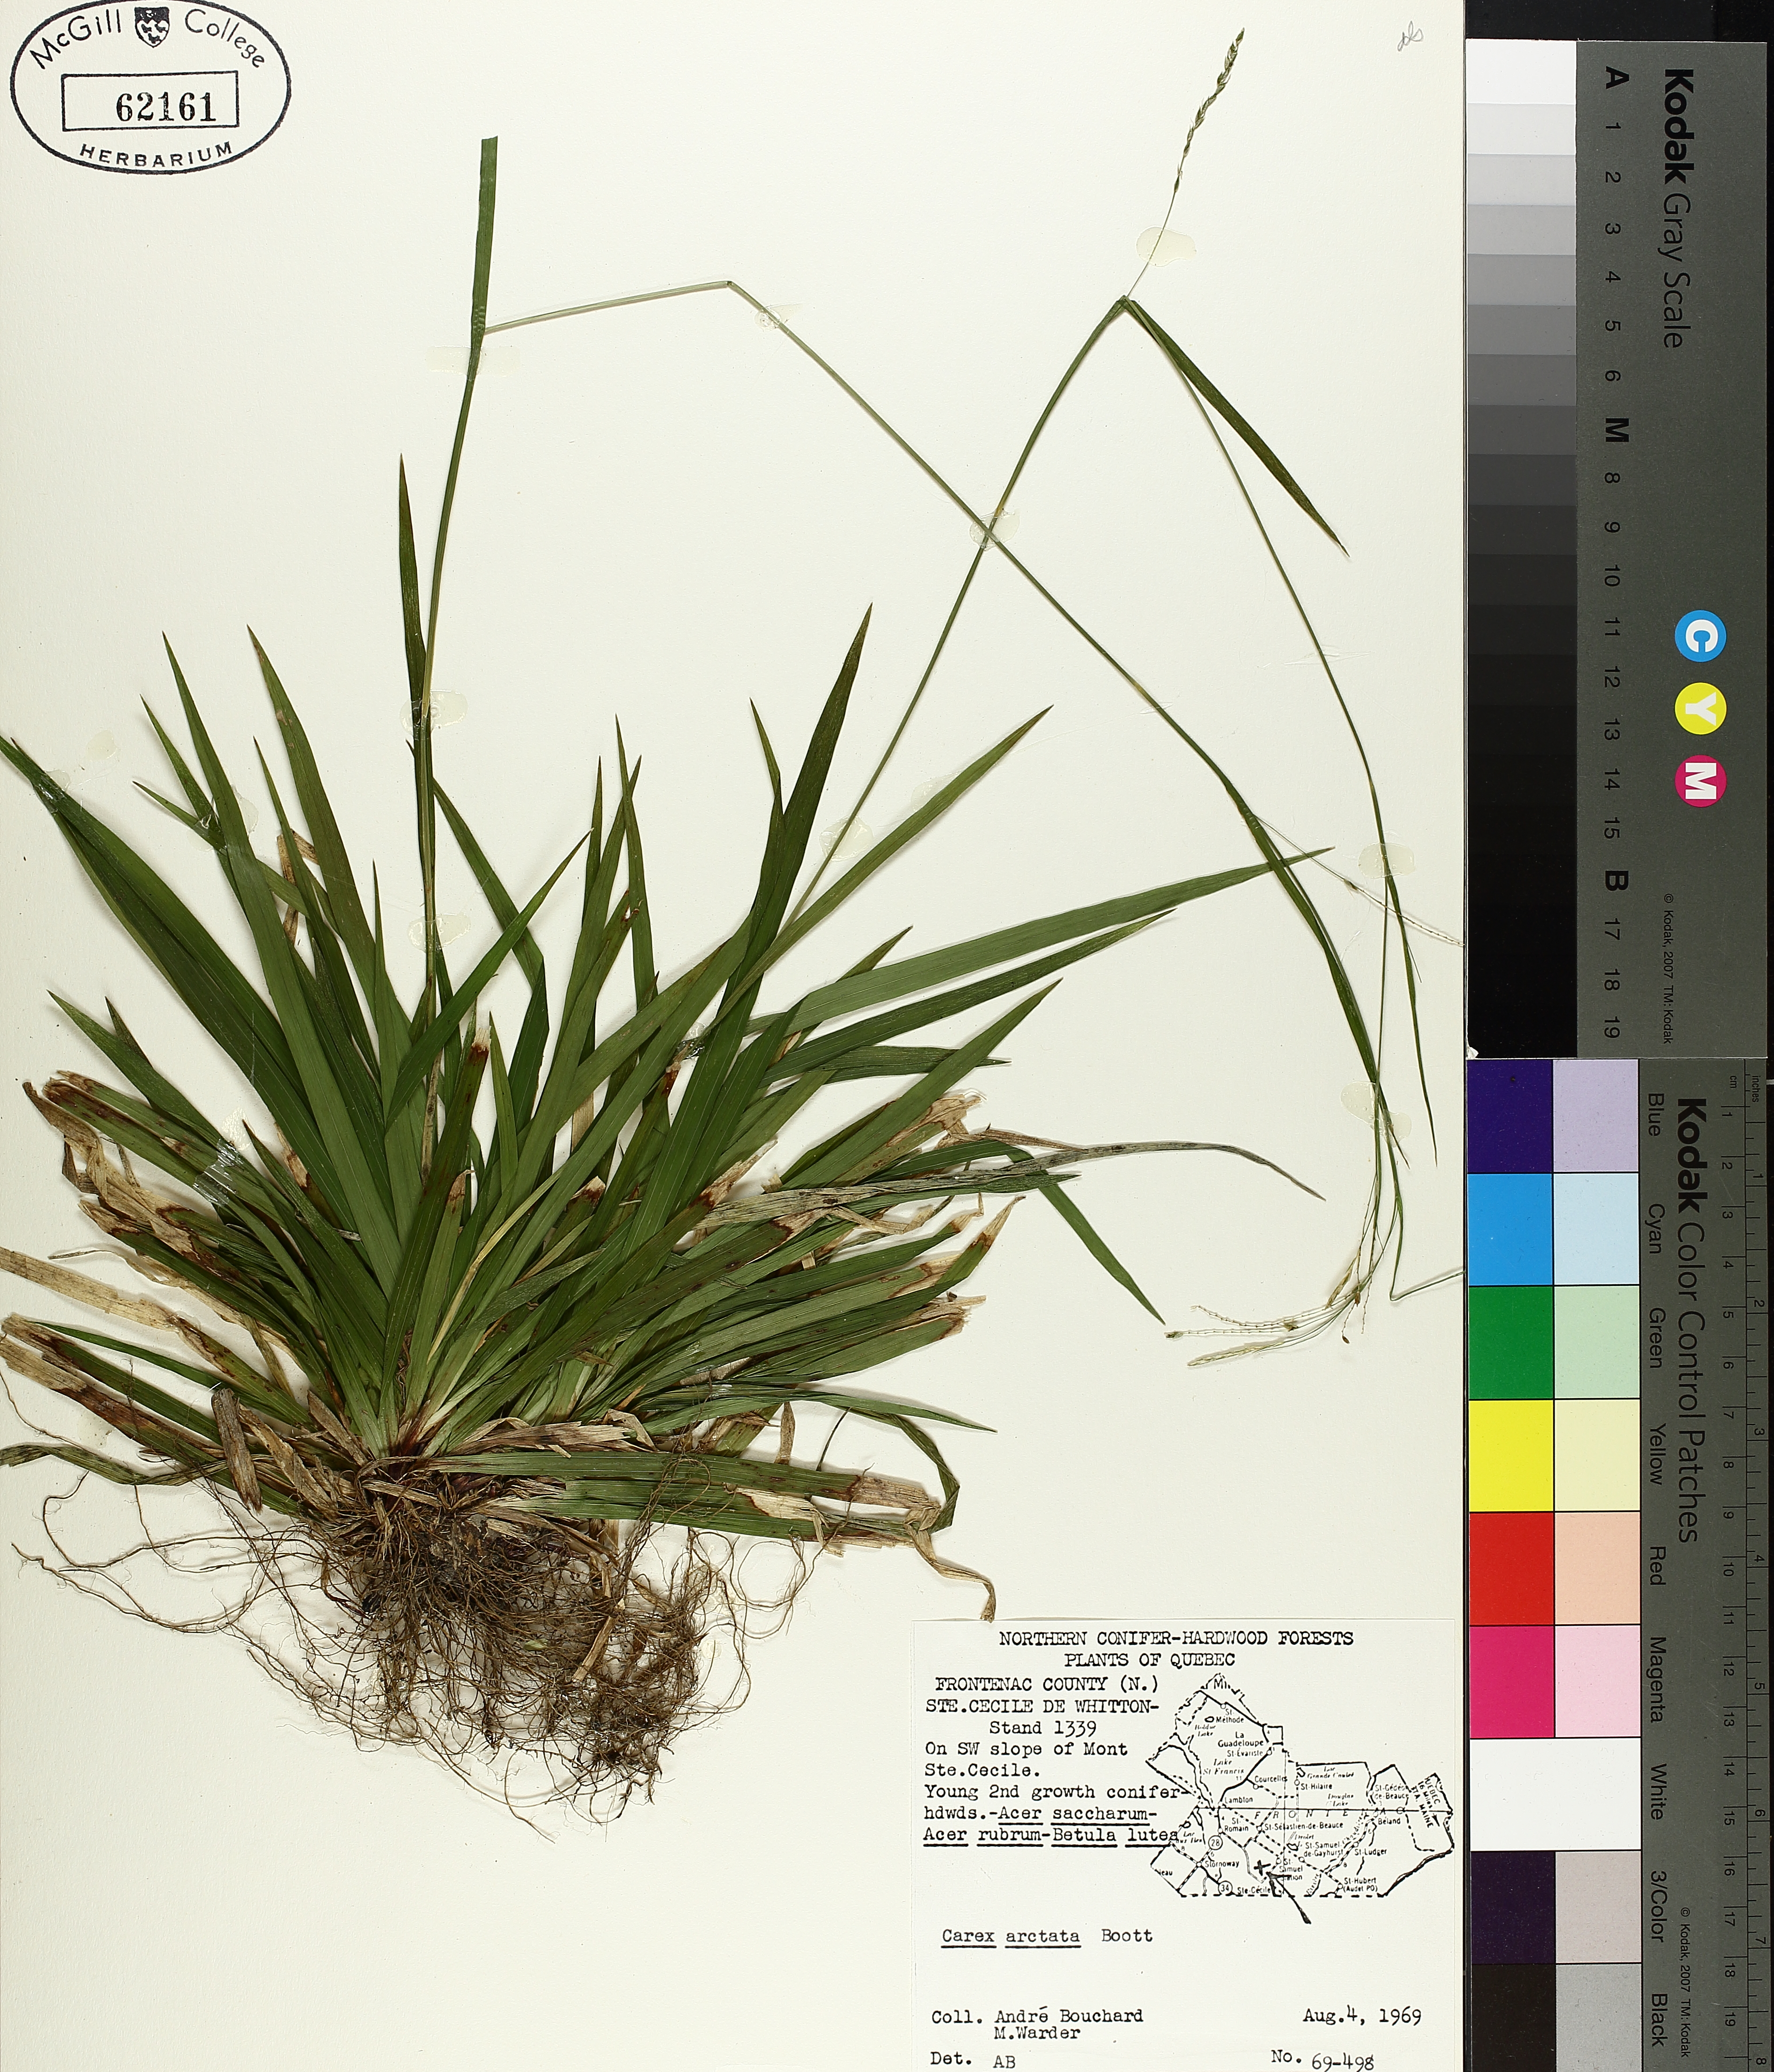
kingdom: Plantae
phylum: Tracheophyta
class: Liliopsida
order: Poales
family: Cyperaceae
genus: Carex
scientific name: Carex arctata
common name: Black sedge
